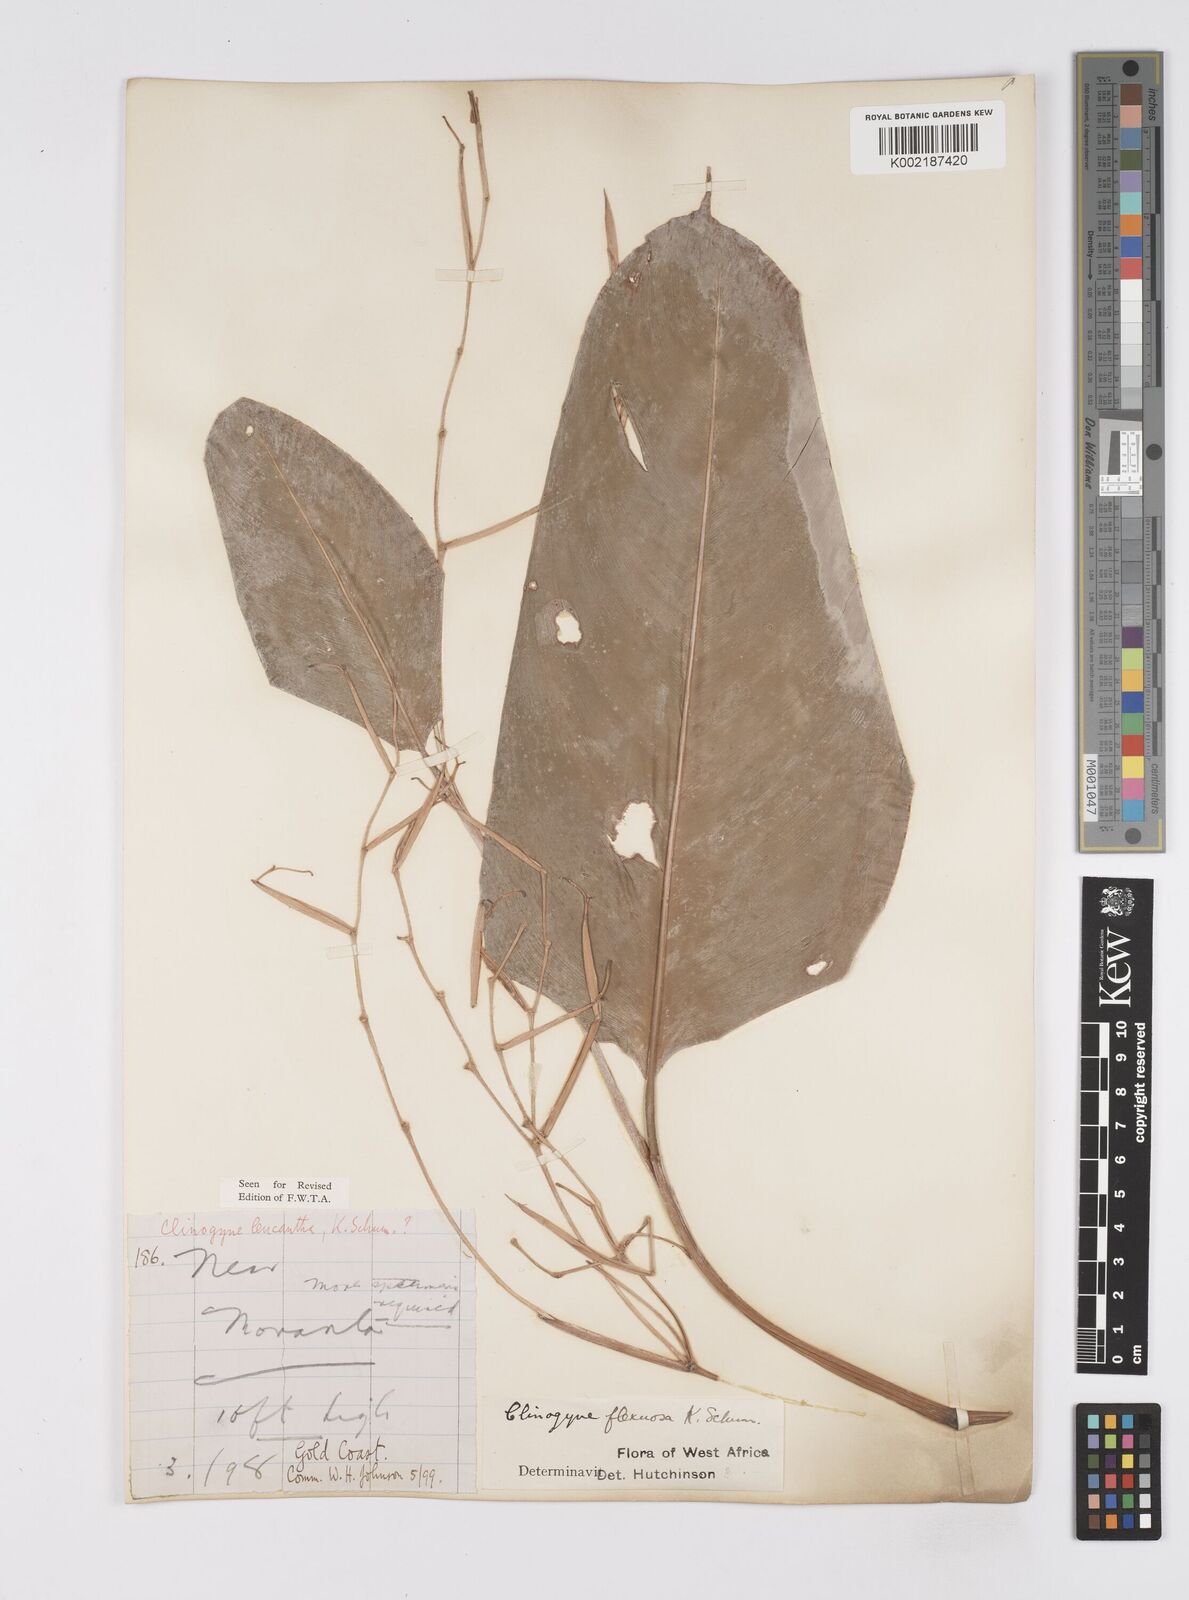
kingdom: Plantae
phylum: Tracheophyta
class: Liliopsida
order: Zingiberales
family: Marantaceae
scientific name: Marantaceae
